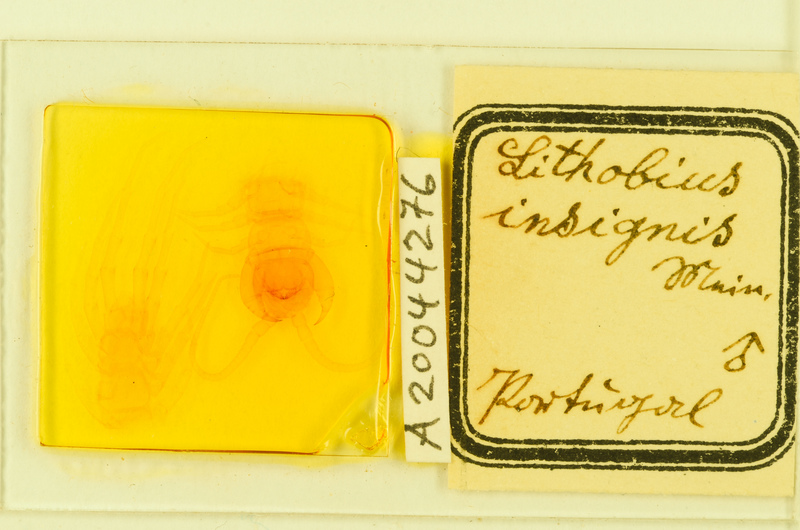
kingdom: Animalia
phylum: Arthropoda
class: Chilopoda
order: Lithobiomorpha
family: Lithobiidae
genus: Lithobius
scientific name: Lithobius variegatus
